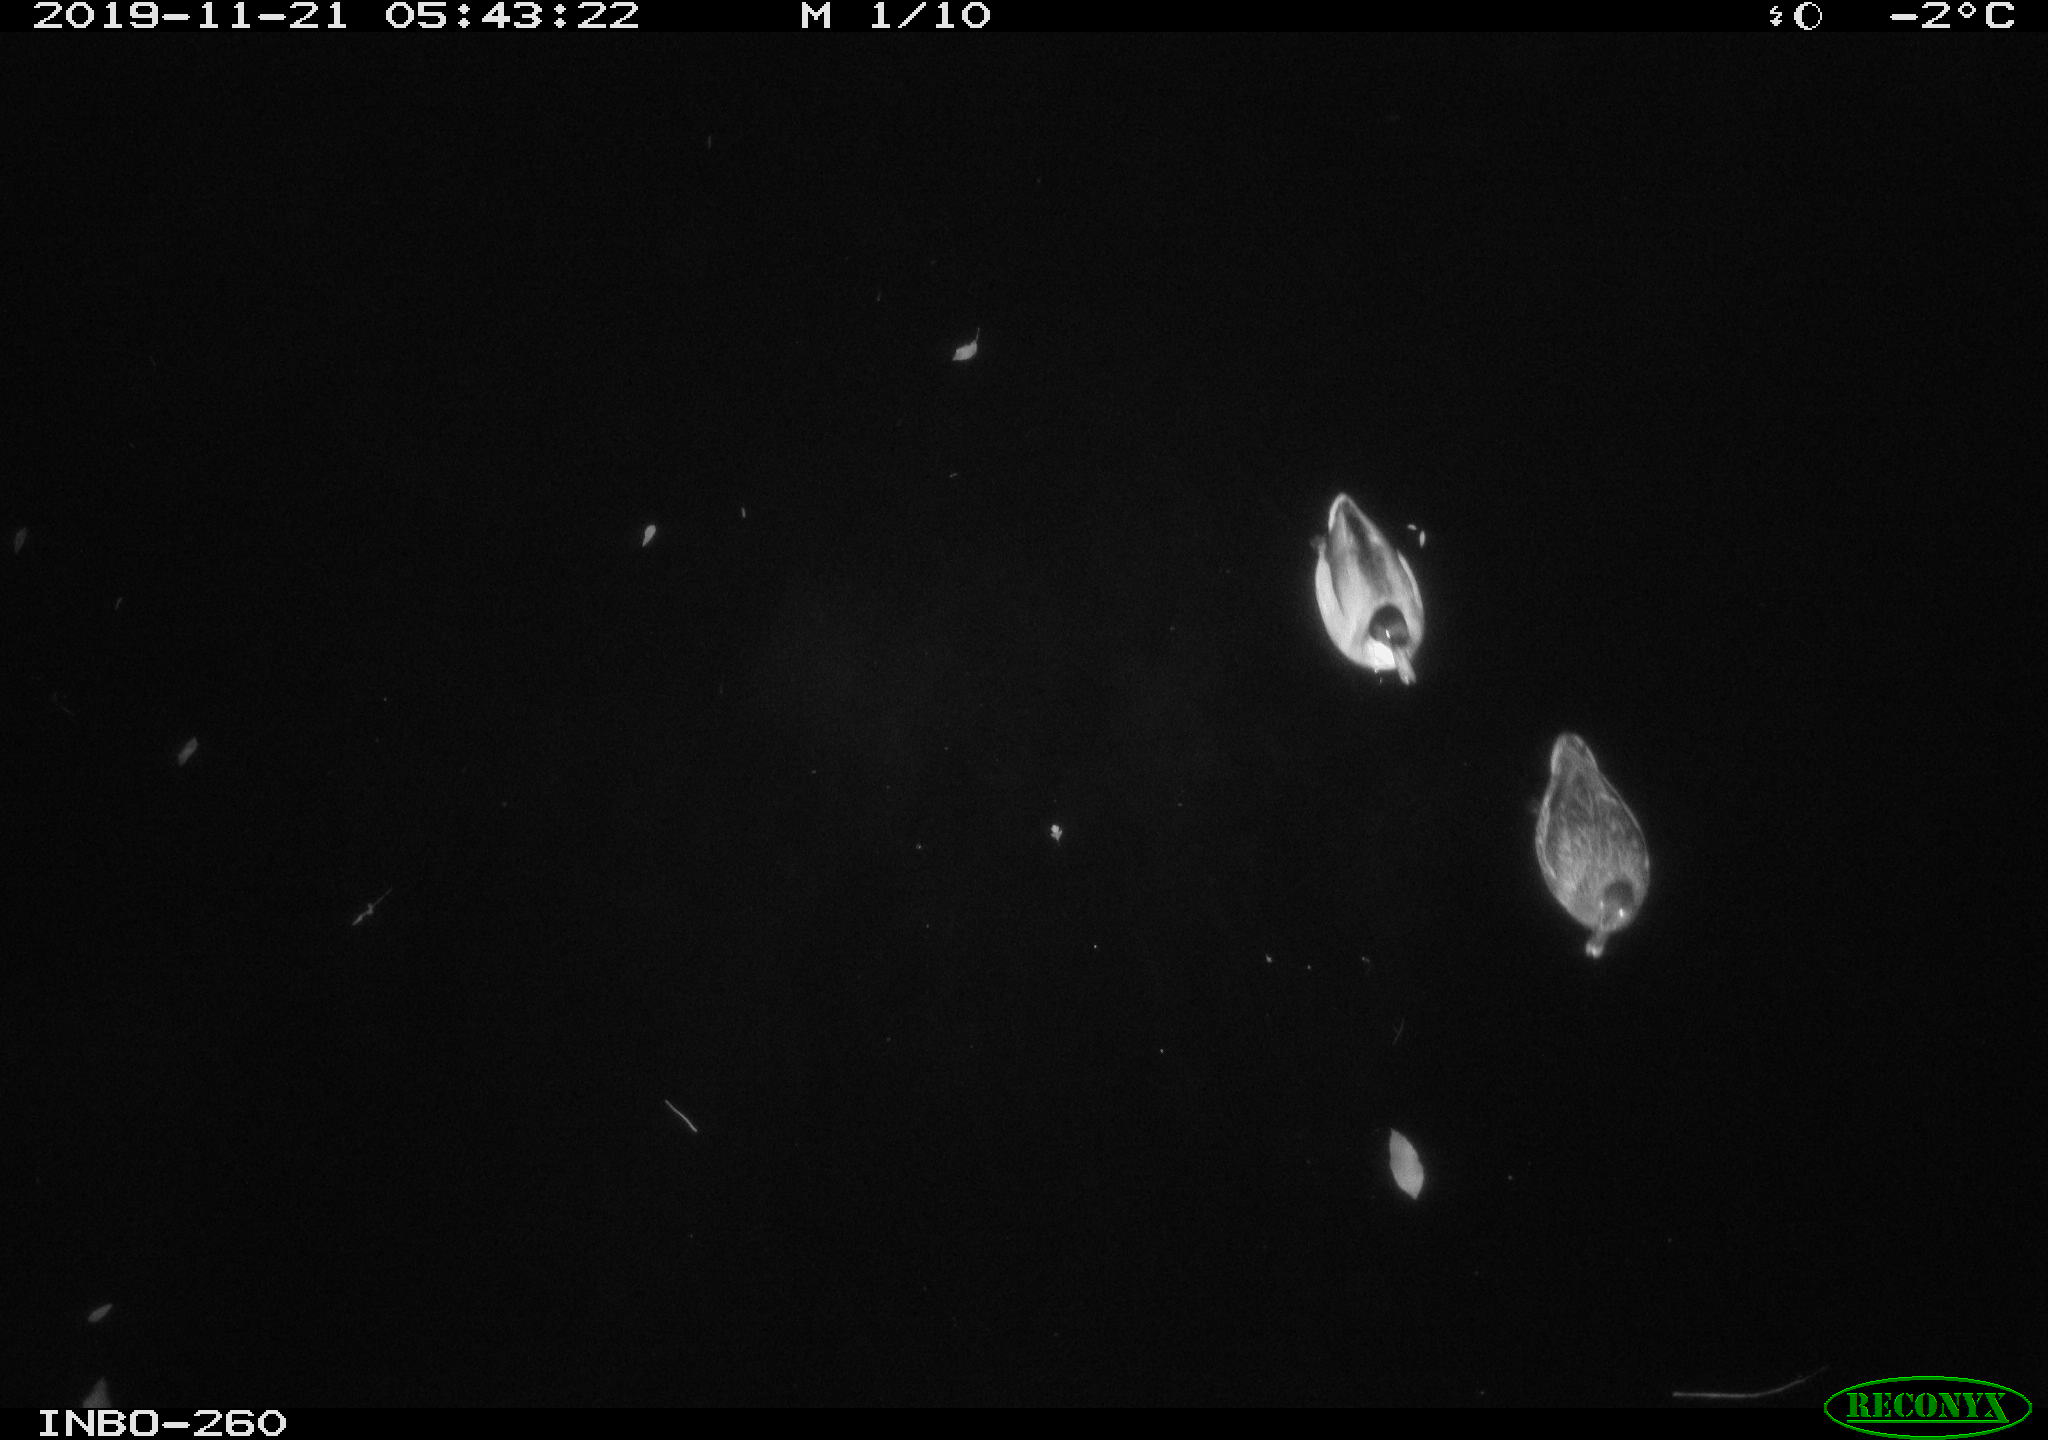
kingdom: Animalia
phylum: Chordata
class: Aves
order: Anseriformes
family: Anatidae
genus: Anas
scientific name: Anas platyrhynchos
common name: Mallard
